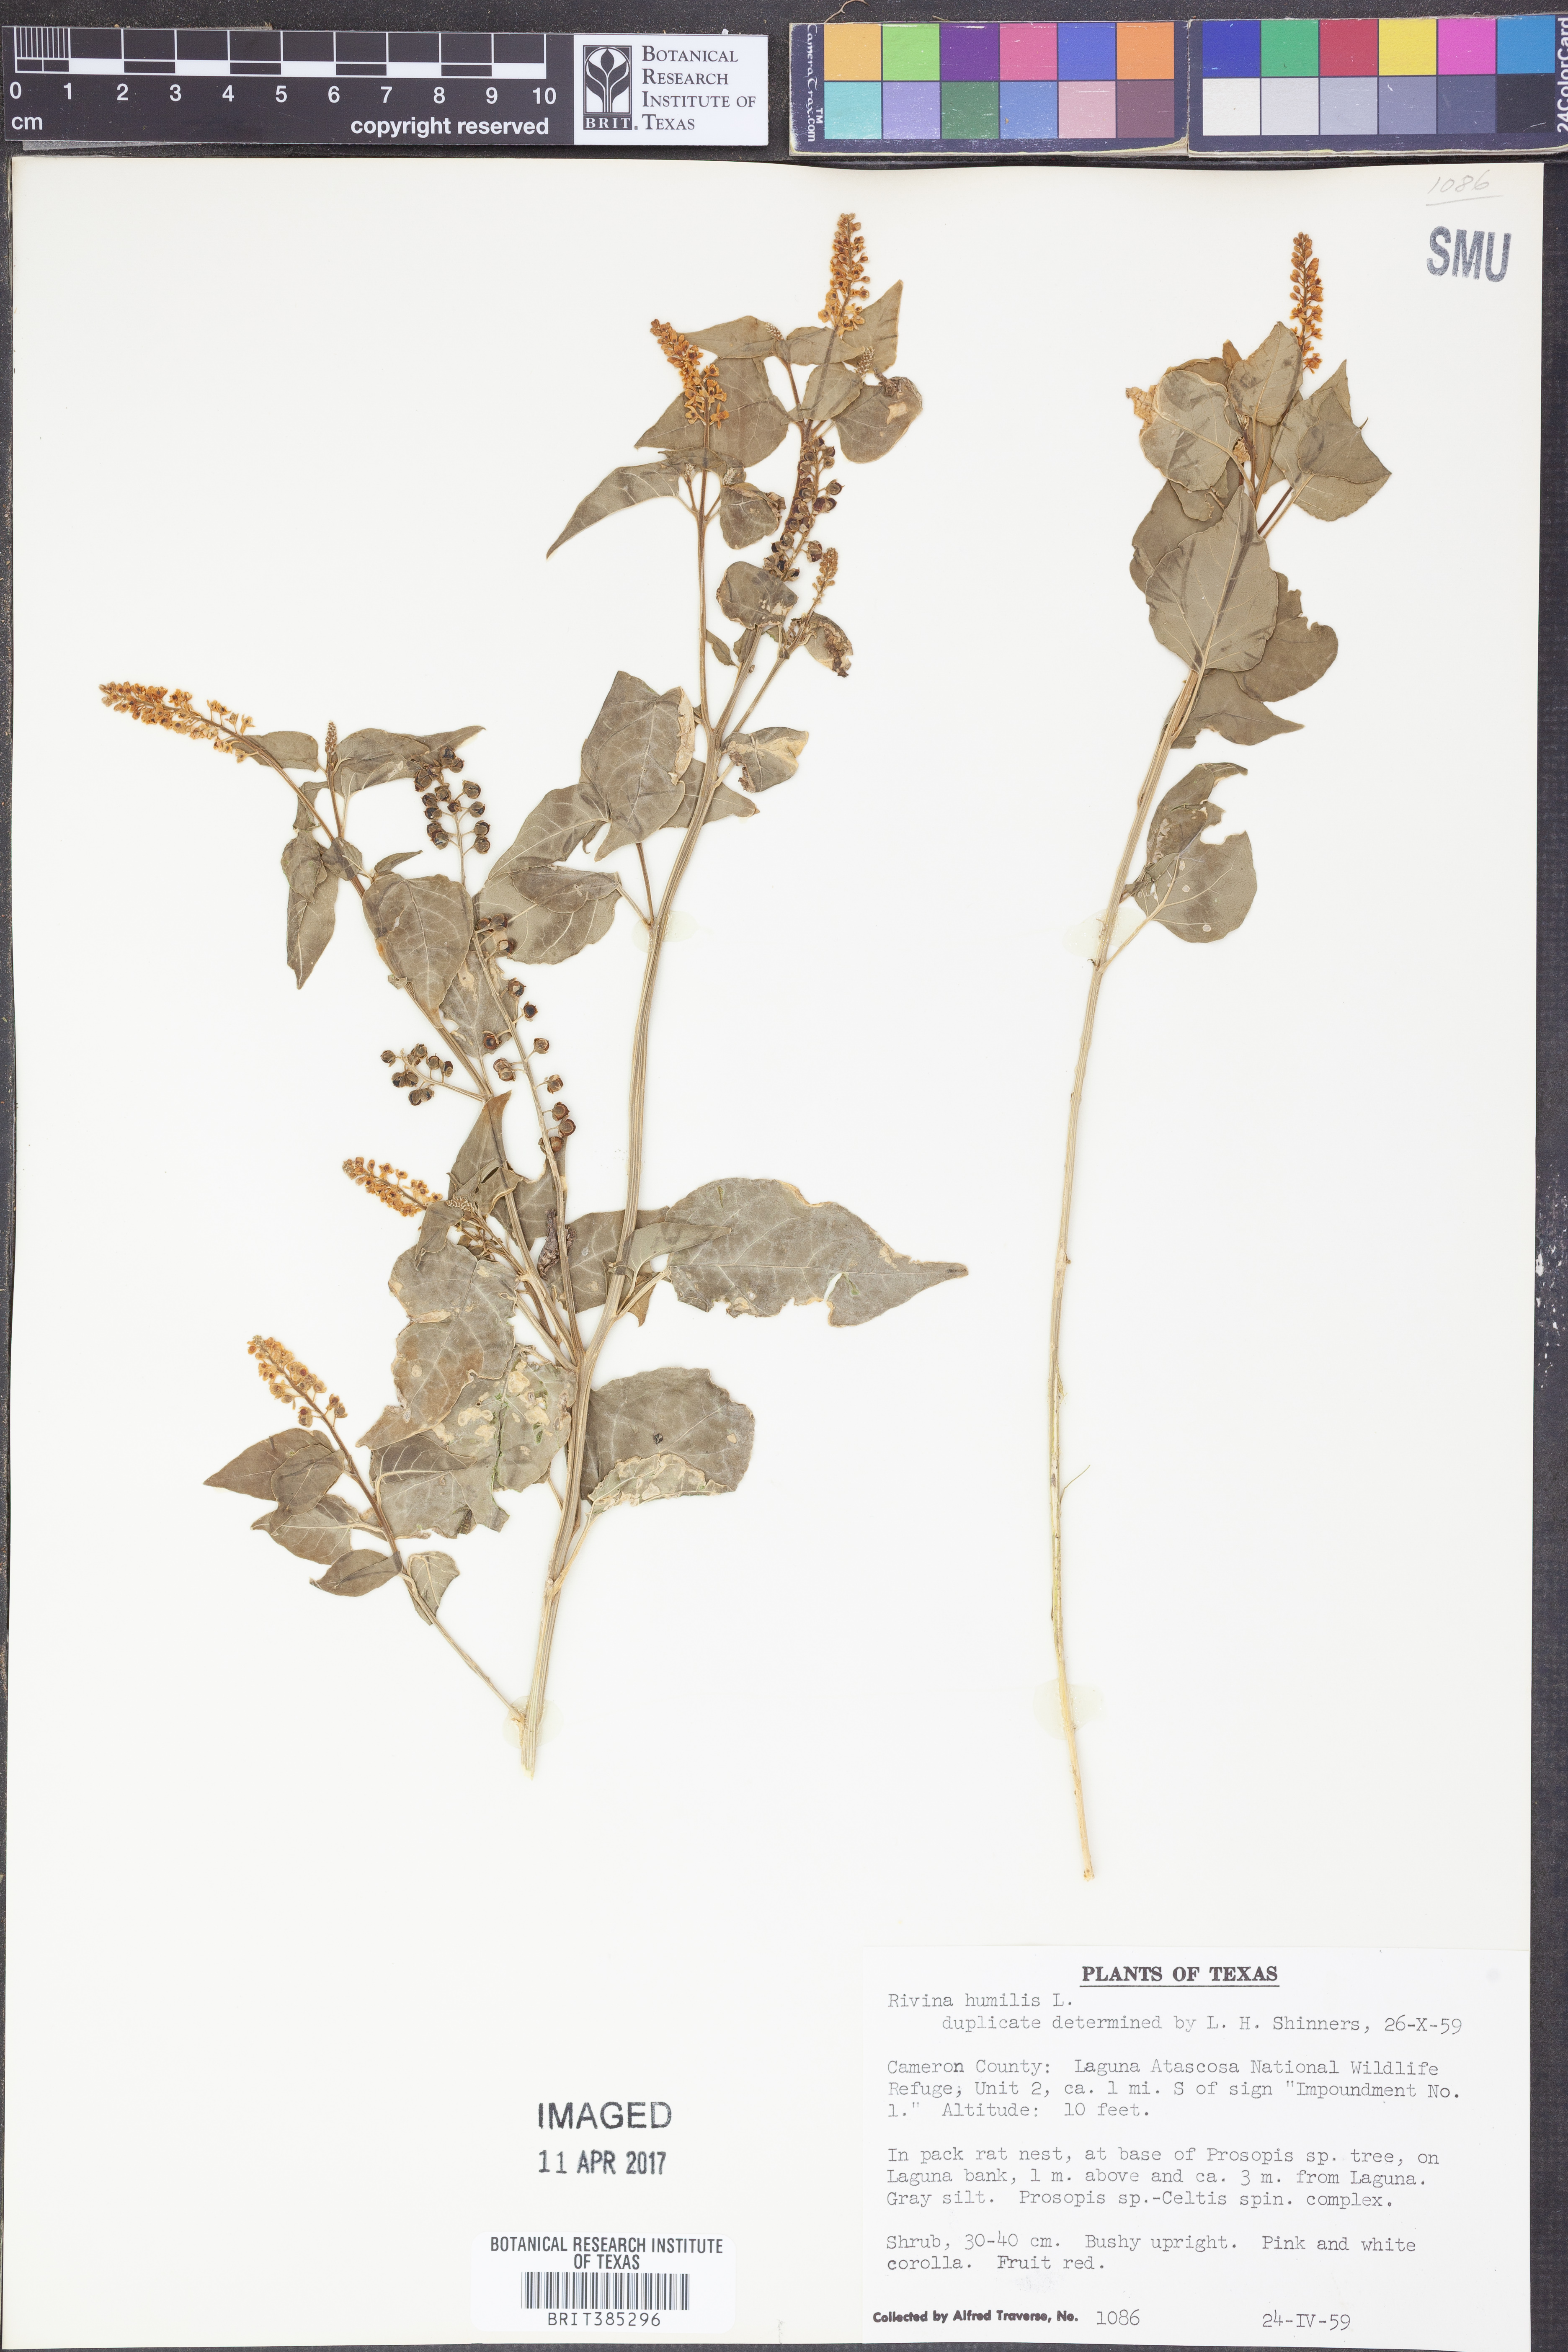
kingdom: Plantae
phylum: Tracheophyta
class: Magnoliopsida
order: Caryophyllales
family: Phytolaccaceae
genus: Rivina
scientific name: Rivina humilis
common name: Rougeplant
